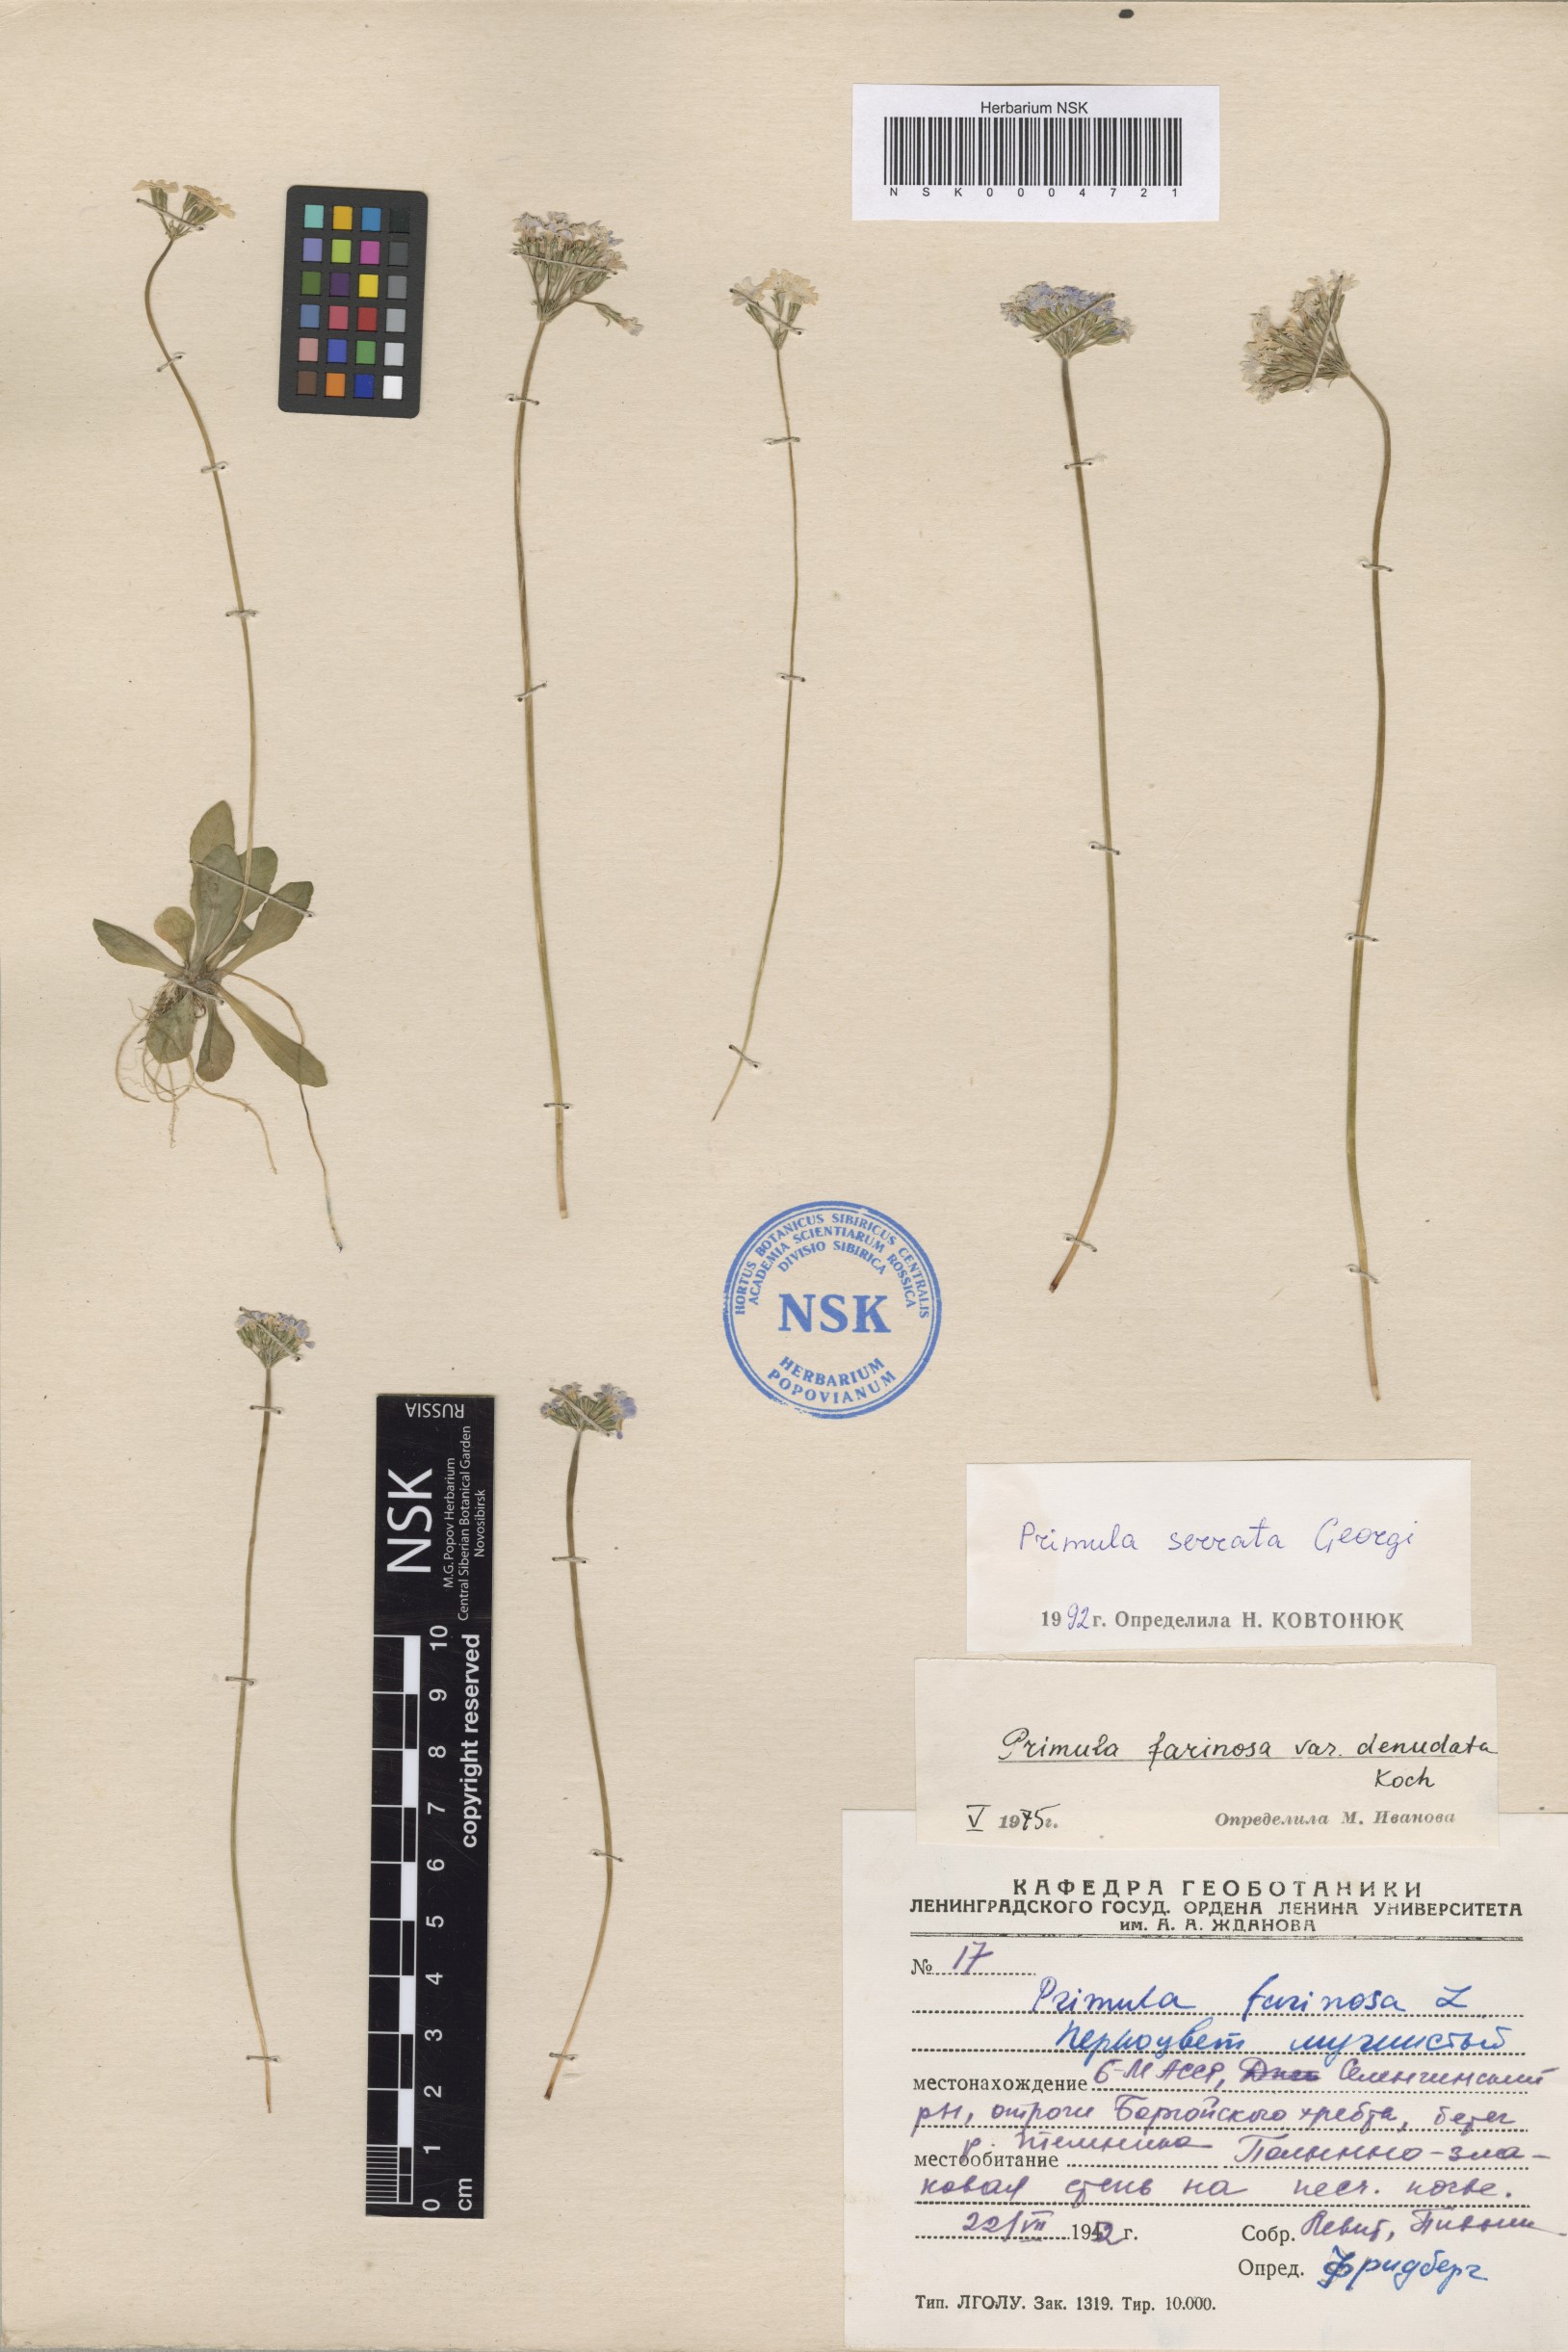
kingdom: Plantae
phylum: Tracheophyta
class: Magnoliopsida
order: Ericales
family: Primulaceae
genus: Primula
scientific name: Primula serrata
